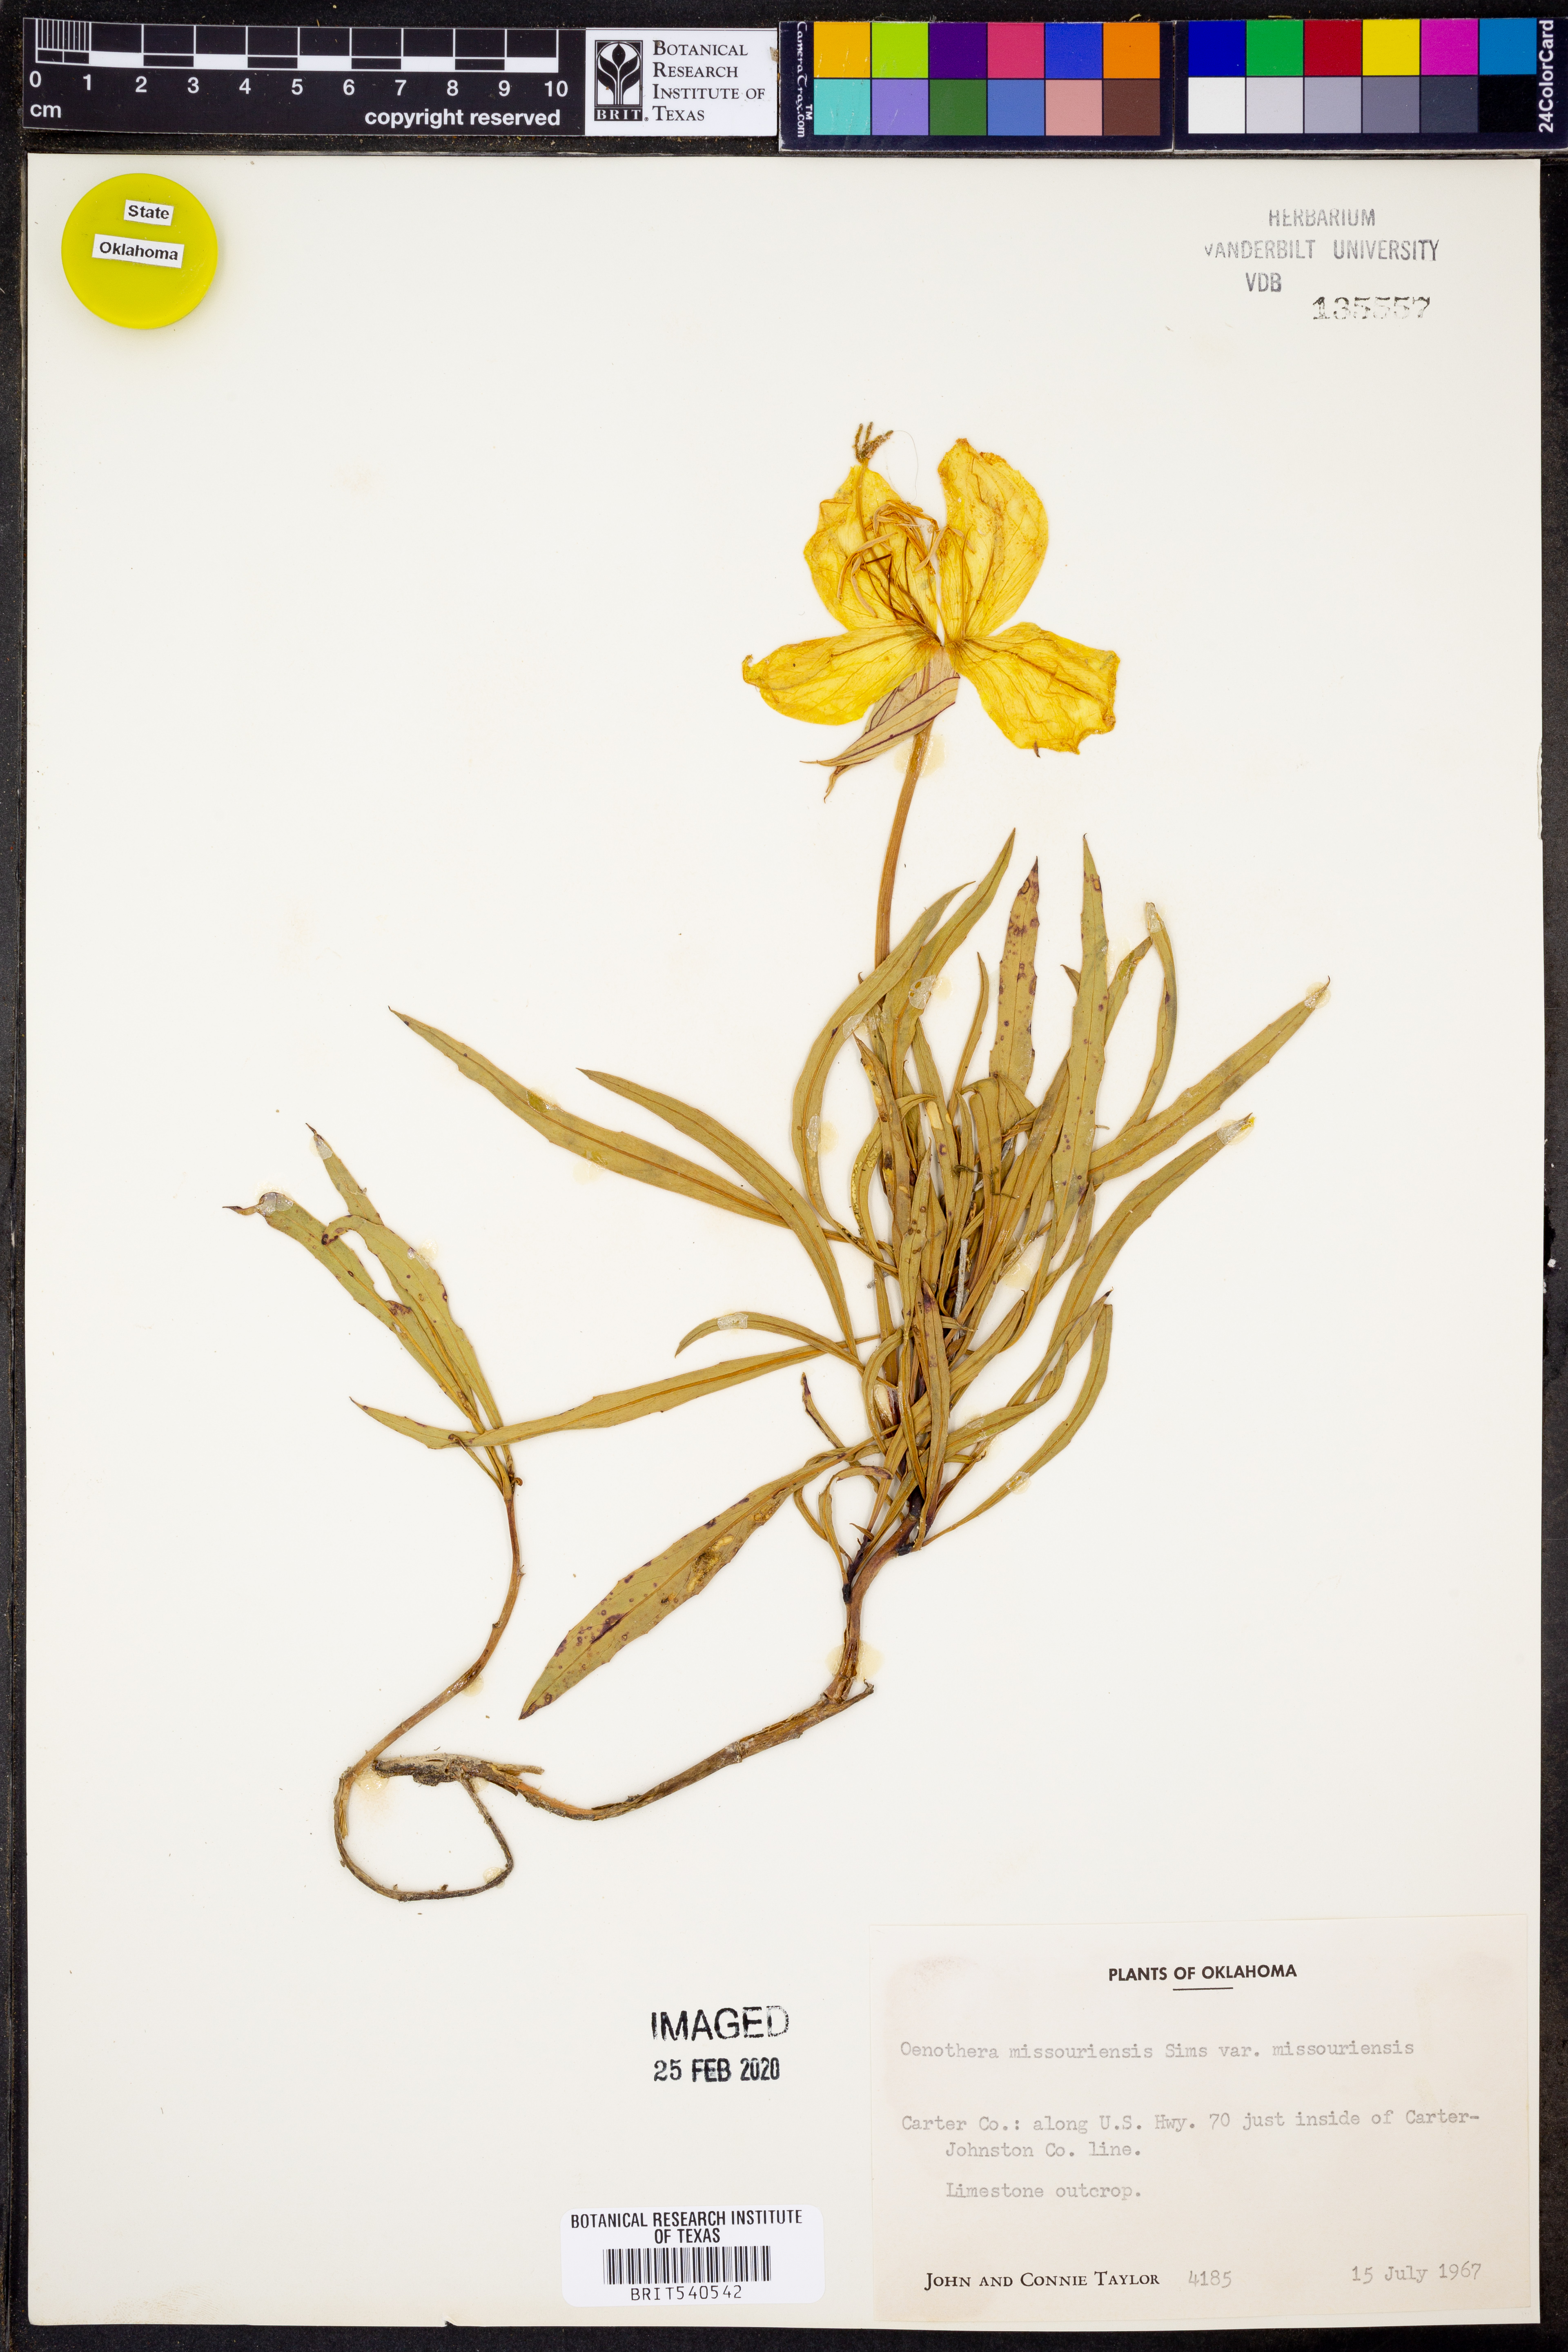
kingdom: Plantae
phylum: Tracheophyta
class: Magnoliopsida
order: Myrtales
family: Onagraceae
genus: Oenothera
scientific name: Oenothera missourensis
